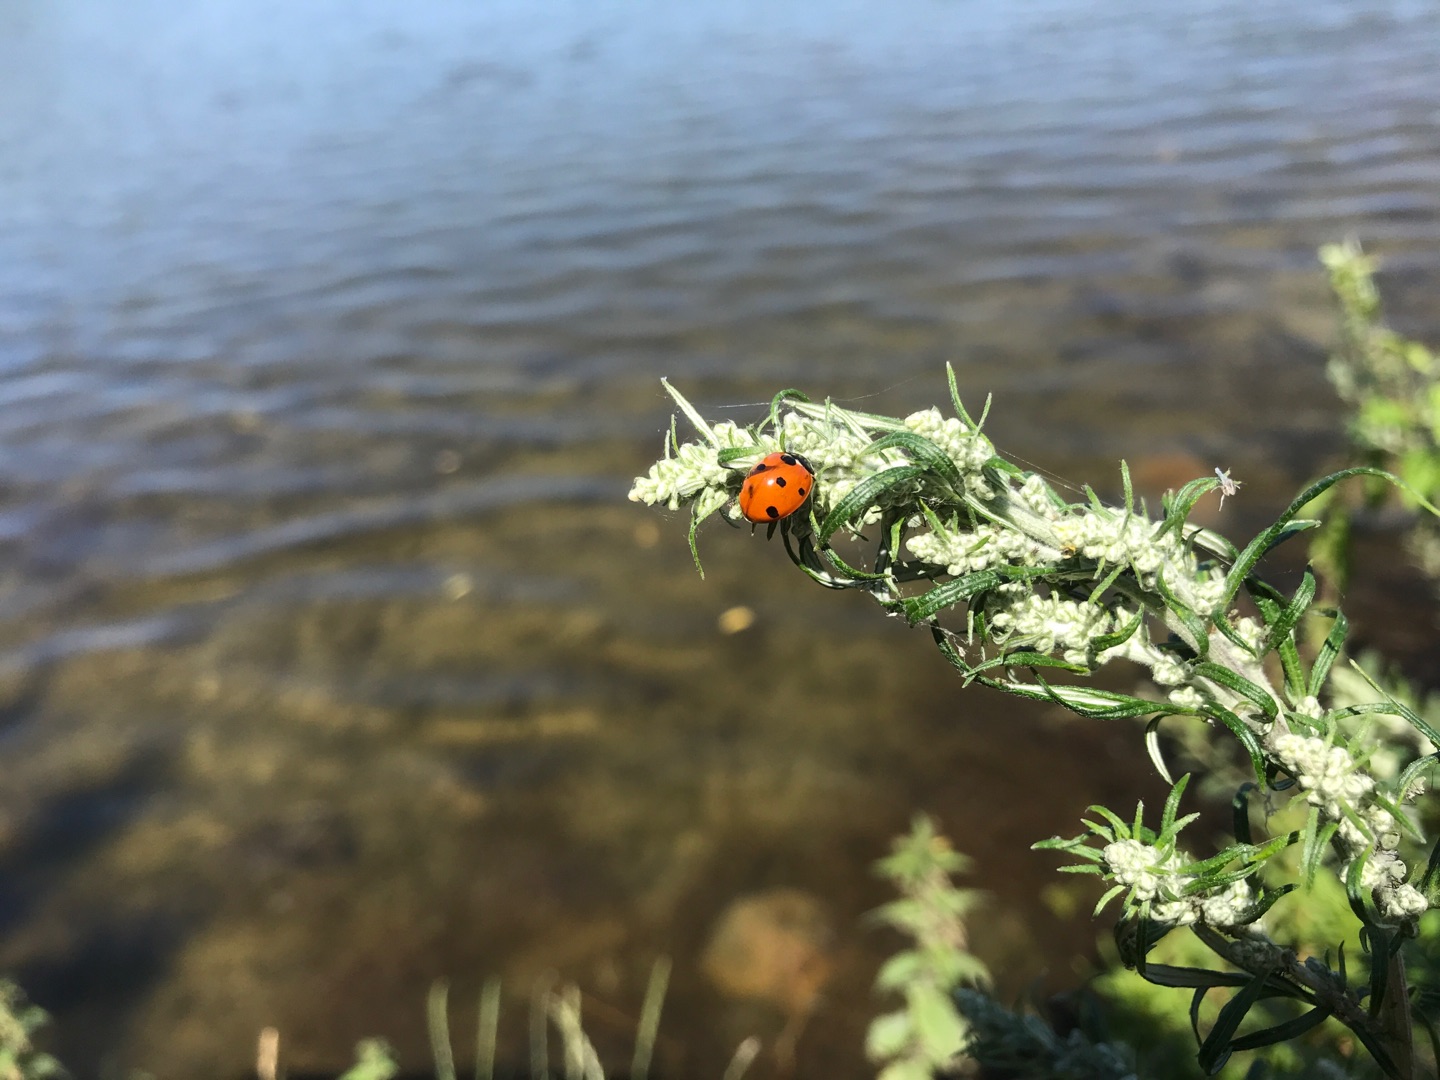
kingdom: Animalia
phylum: Arthropoda
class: Insecta
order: Coleoptera
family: Coccinellidae
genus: Coccinella
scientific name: Coccinella septempunctata
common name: Syvplettet mariehøne
